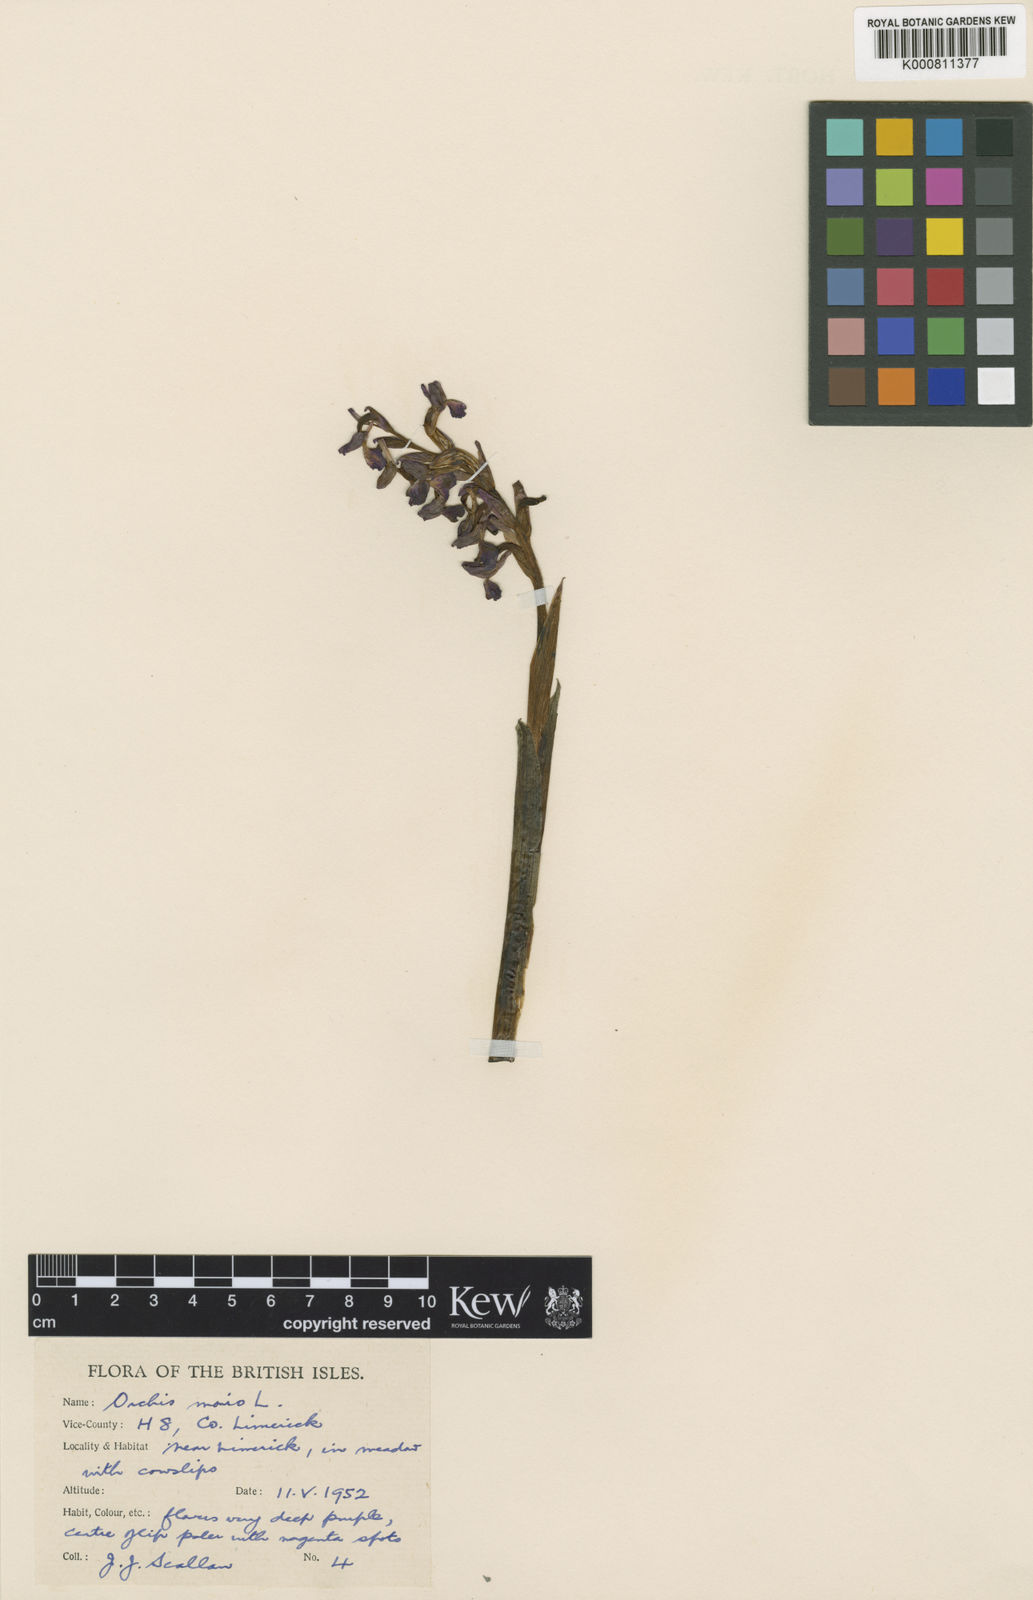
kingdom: Plantae
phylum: Tracheophyta
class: Liliopsida
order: Asparagales
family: Orchidaceae
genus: Anacamptis
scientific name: Anacamptis morio
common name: Green-winged orchid
